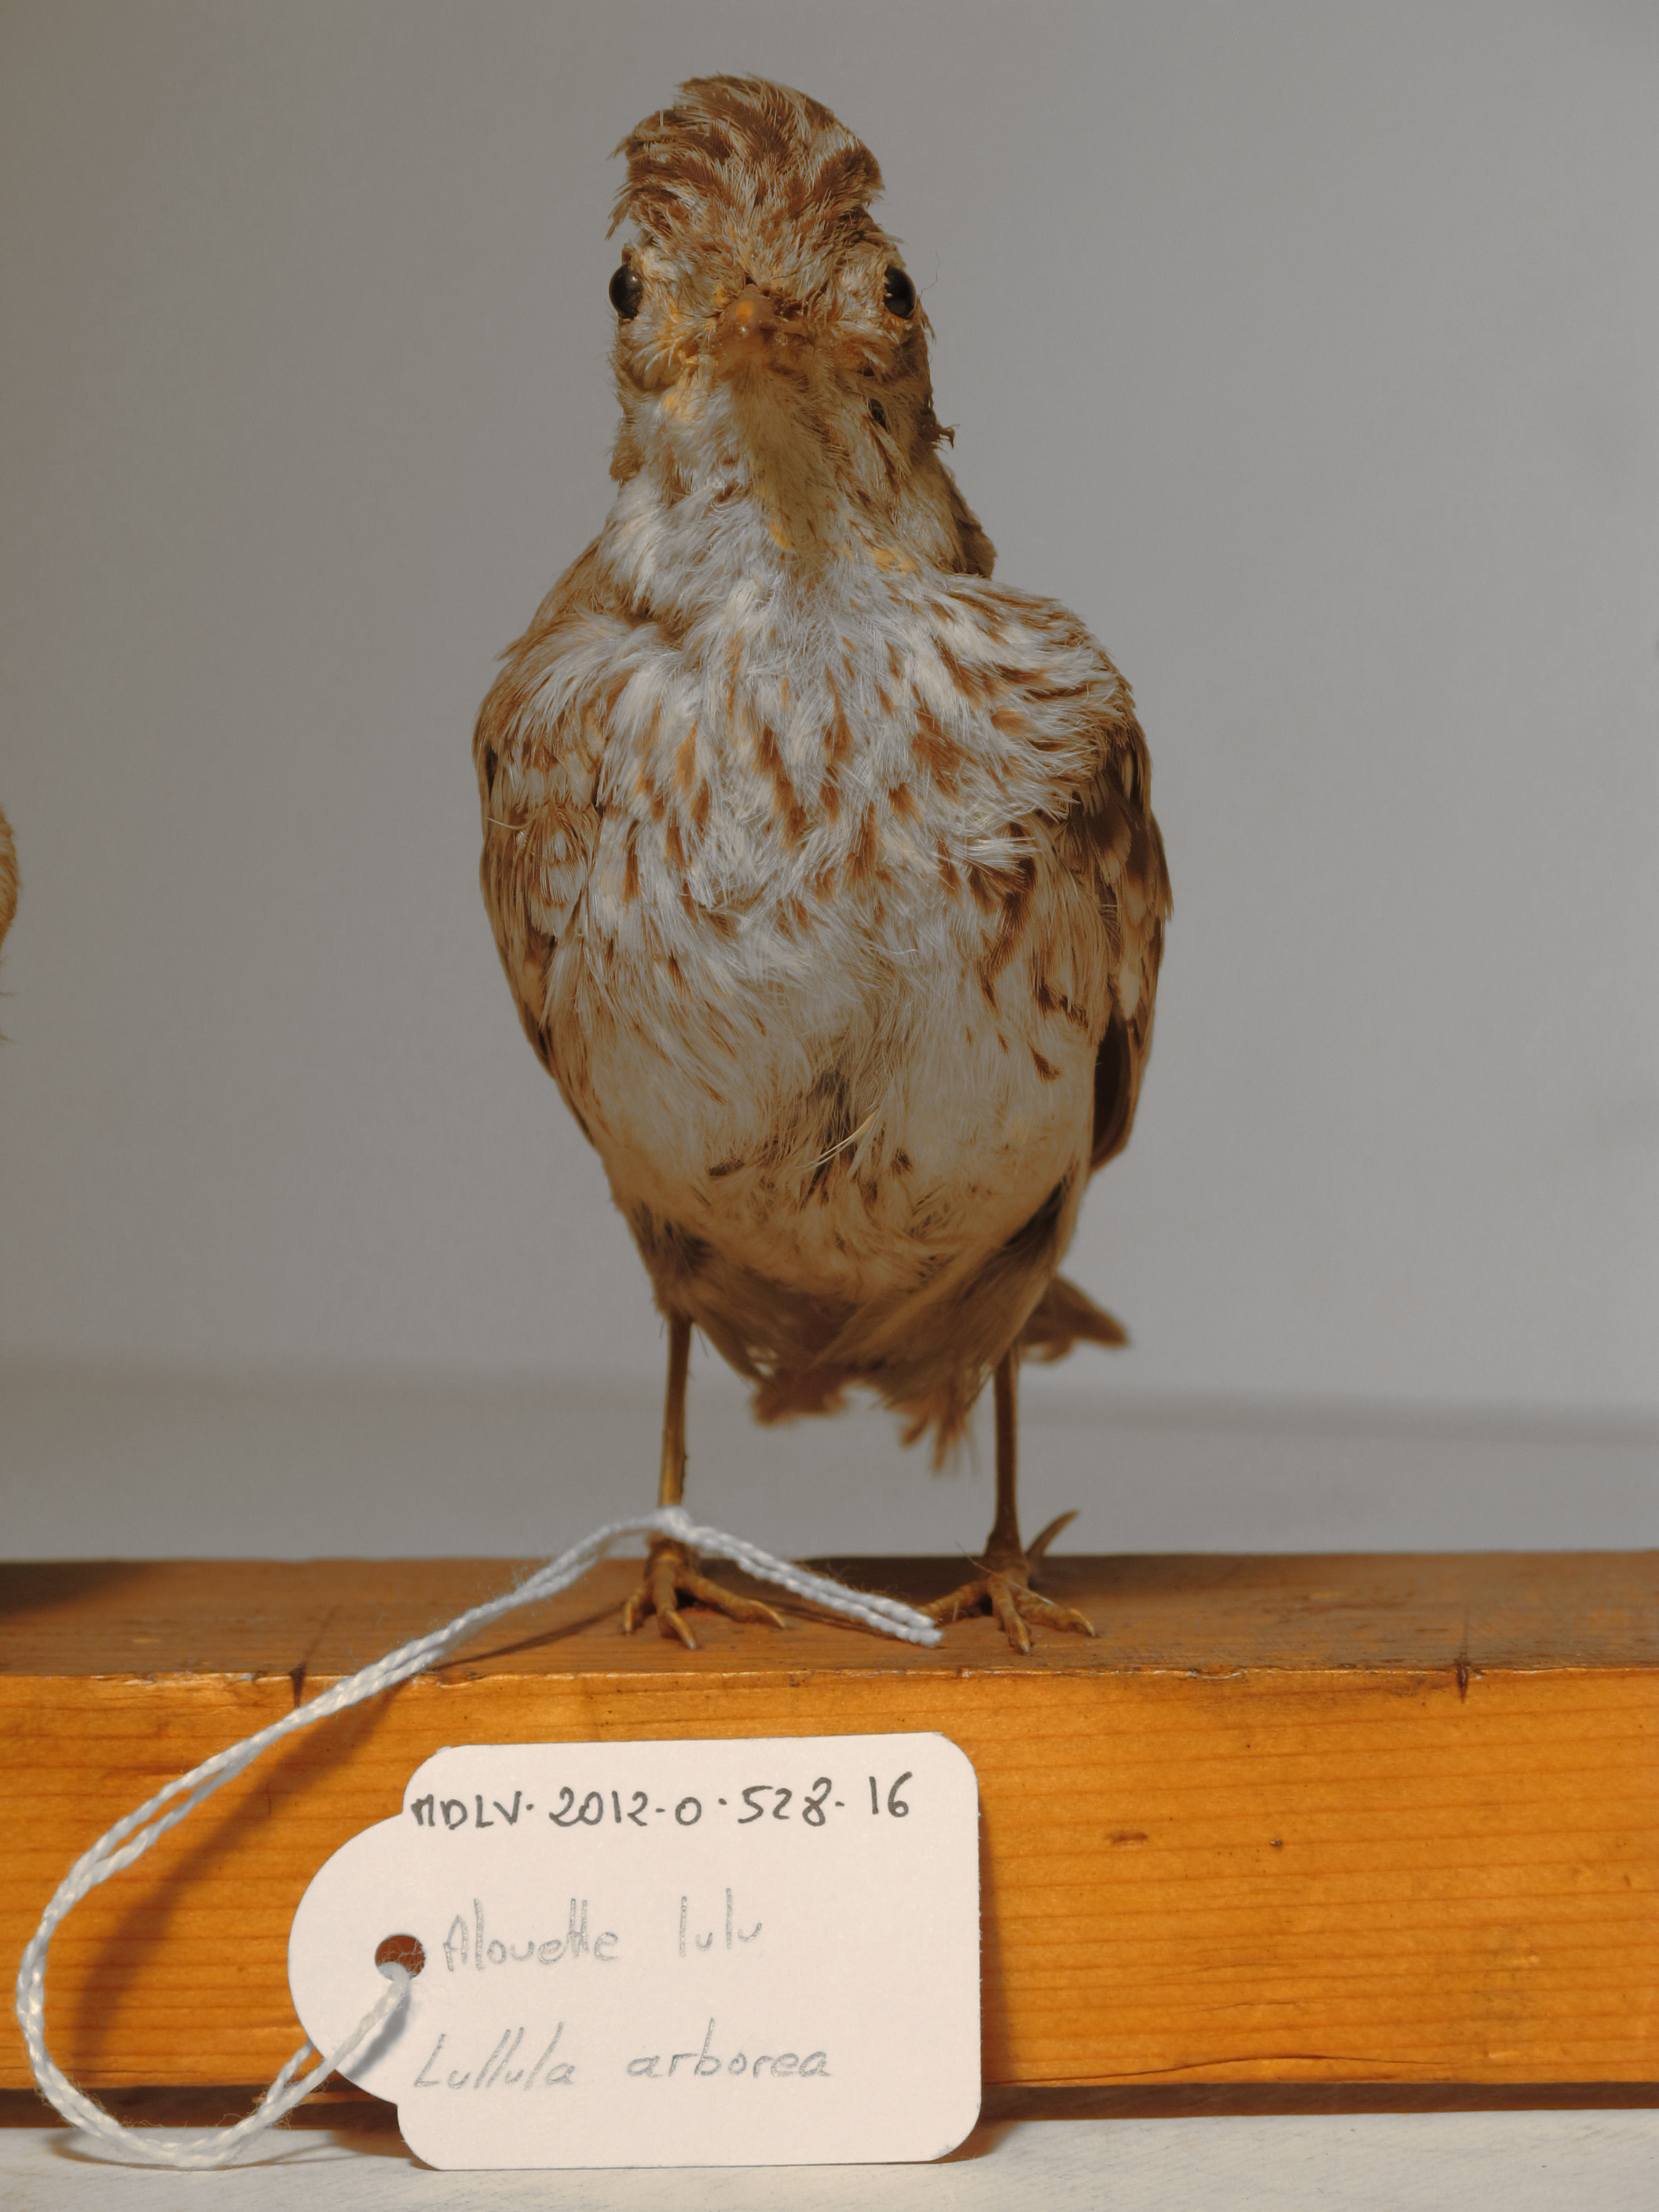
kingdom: Animalia
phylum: Chordata
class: Aves
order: Passeriformes
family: Alaudidae
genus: Lullula
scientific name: Lullula arborea
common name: Woodlark
